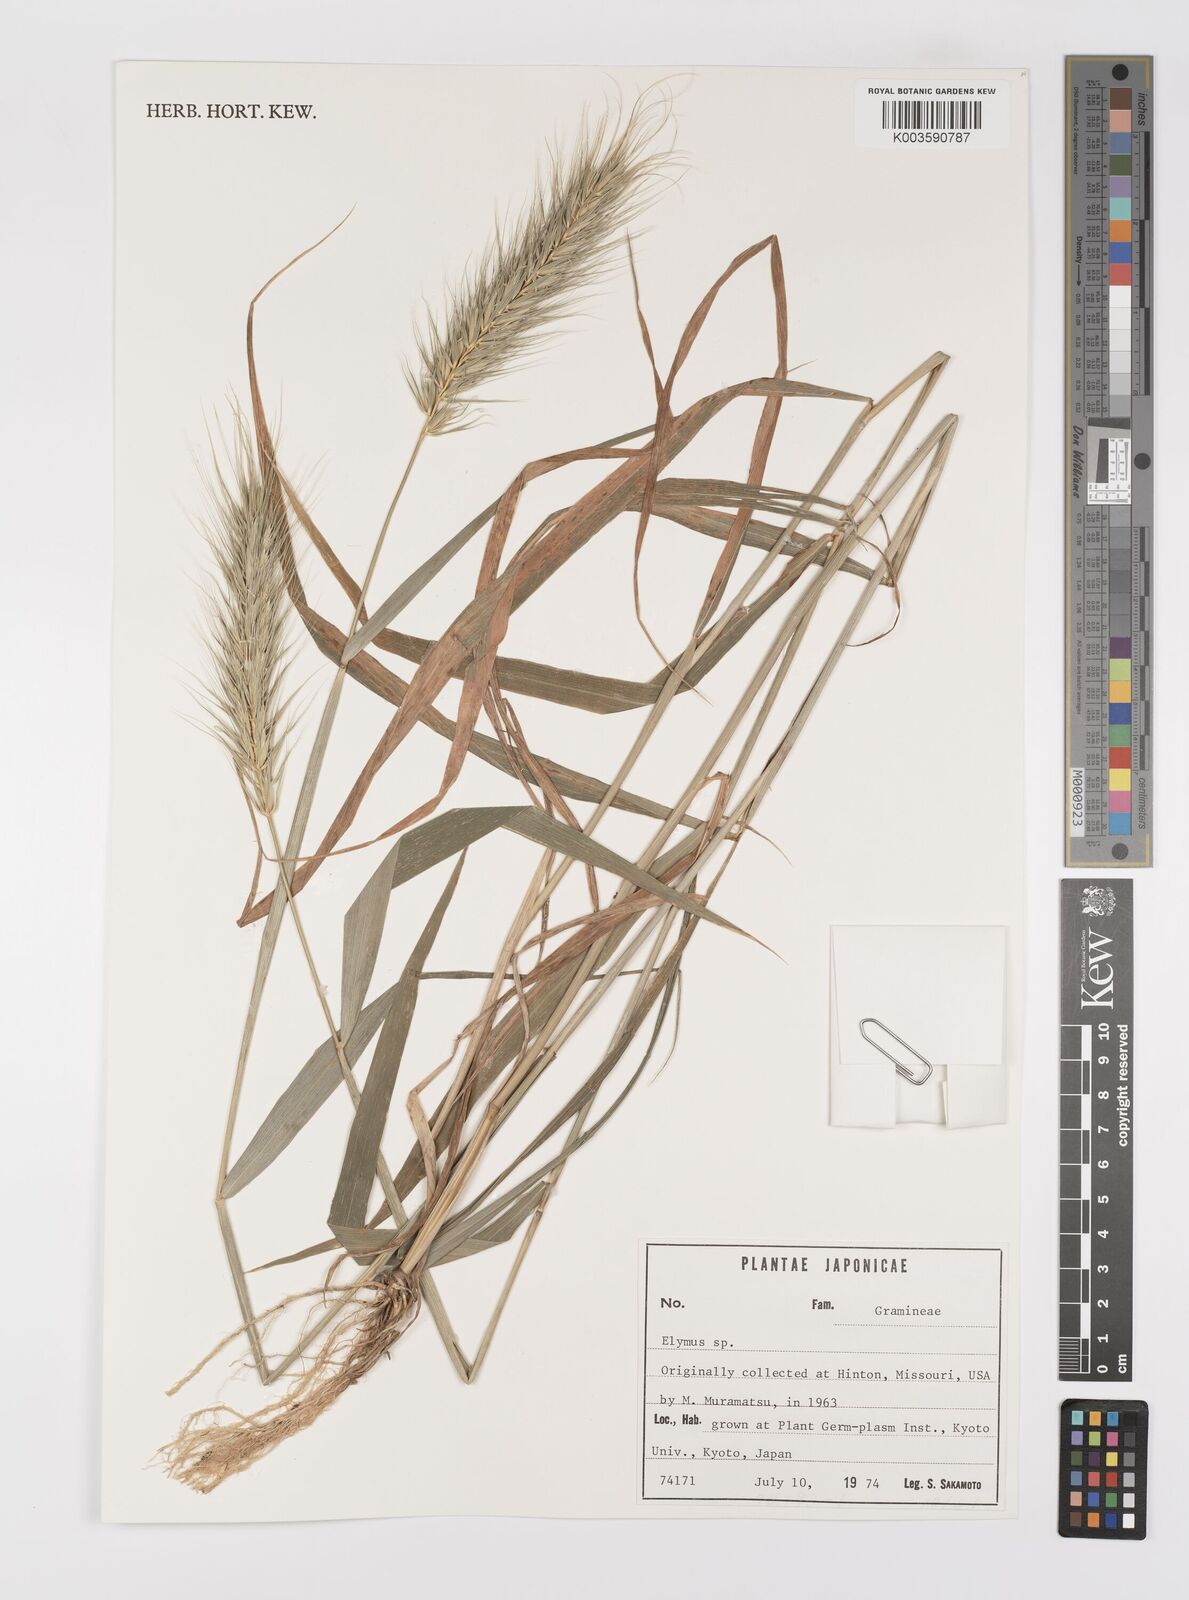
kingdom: Plantae
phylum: Tracheophyta
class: Liliopsida
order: Poales
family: Poaceae
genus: Elymus
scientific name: Elymus
